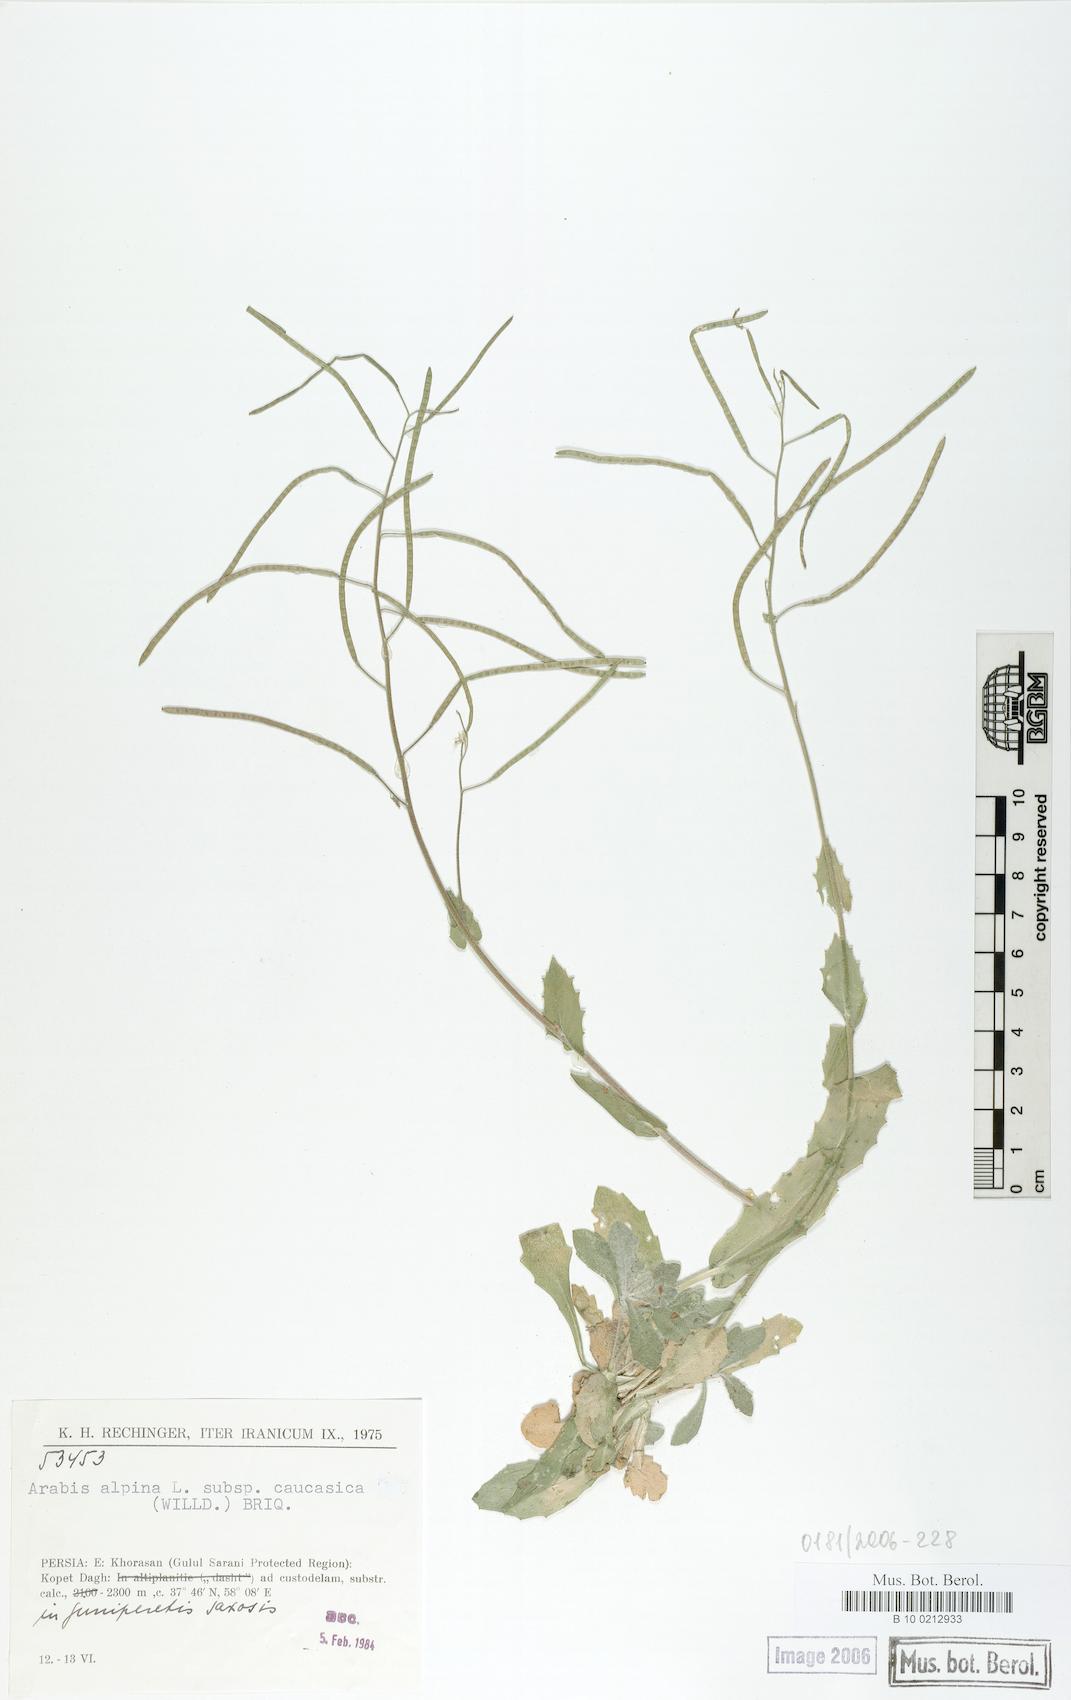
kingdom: Plantae
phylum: Tracheophyta
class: Magnoliopsida
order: Brassicales
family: Brassicaceae
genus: Arabis
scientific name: Arabis caucasica
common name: Gray rockcress
